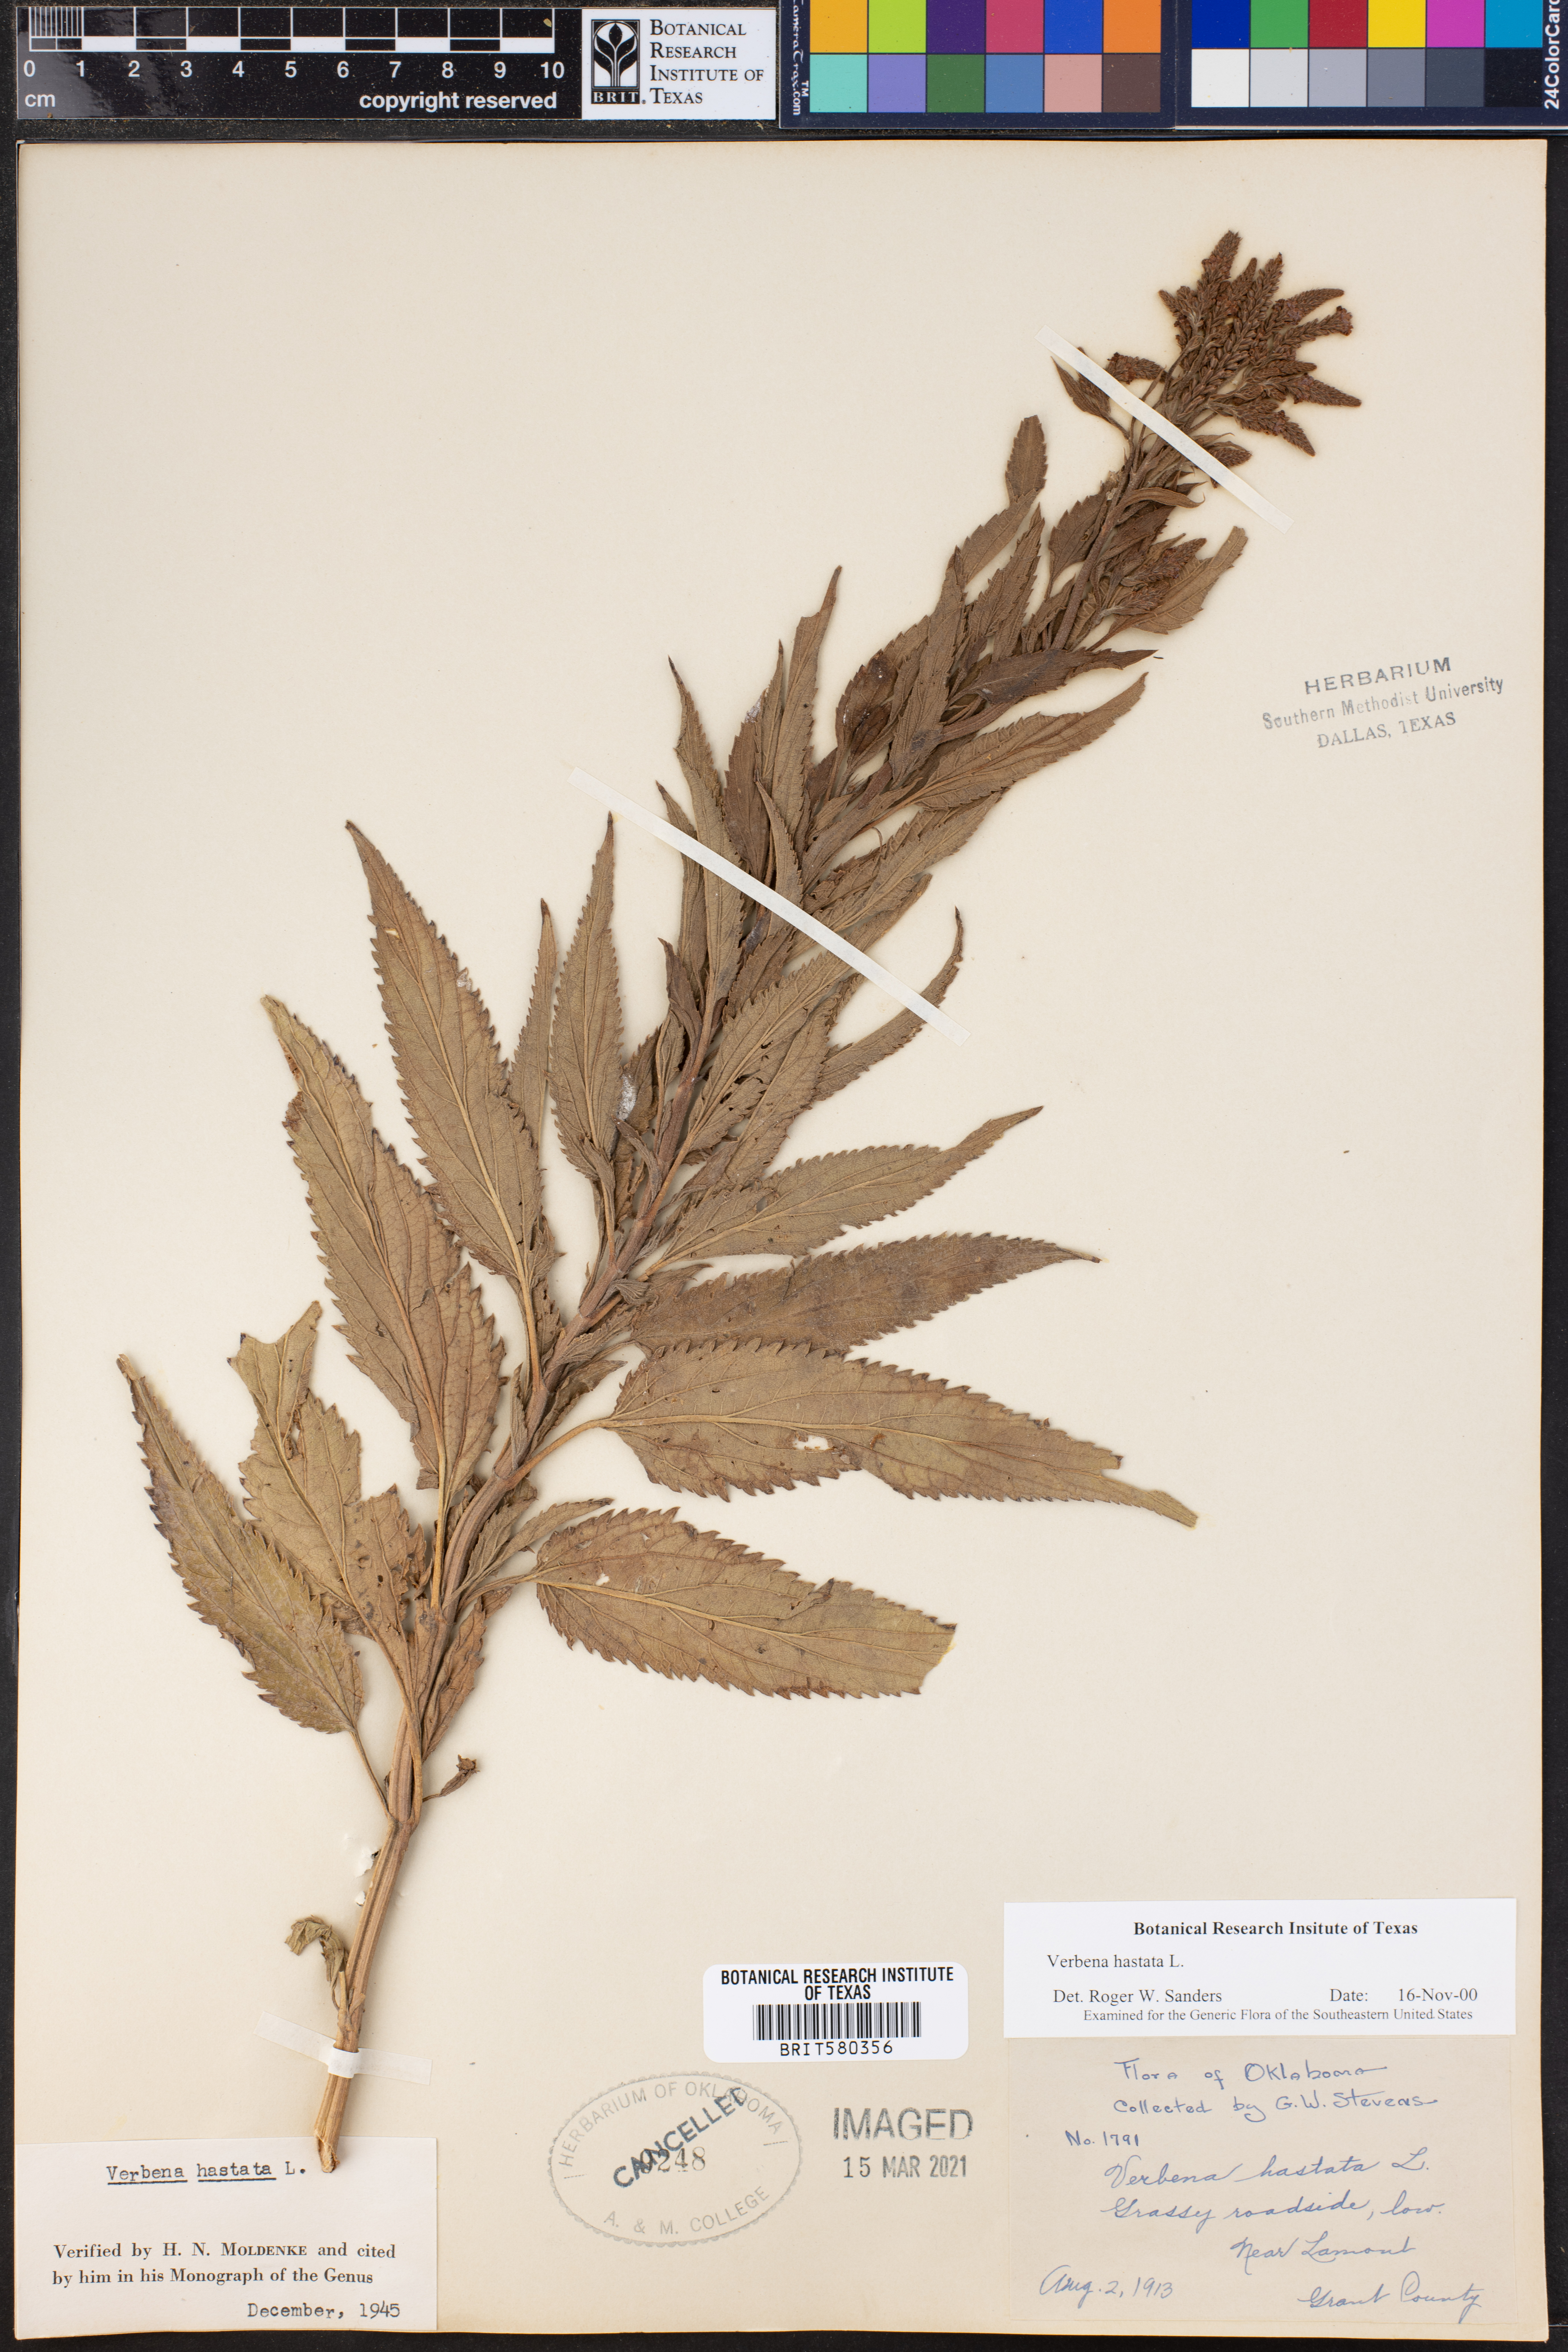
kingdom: Plantae
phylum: Tracheophyta
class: Magnoliopsida
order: Lamiales
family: Verbenaceae
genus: Verbena
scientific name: Verbena hastata
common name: American blue vervain
